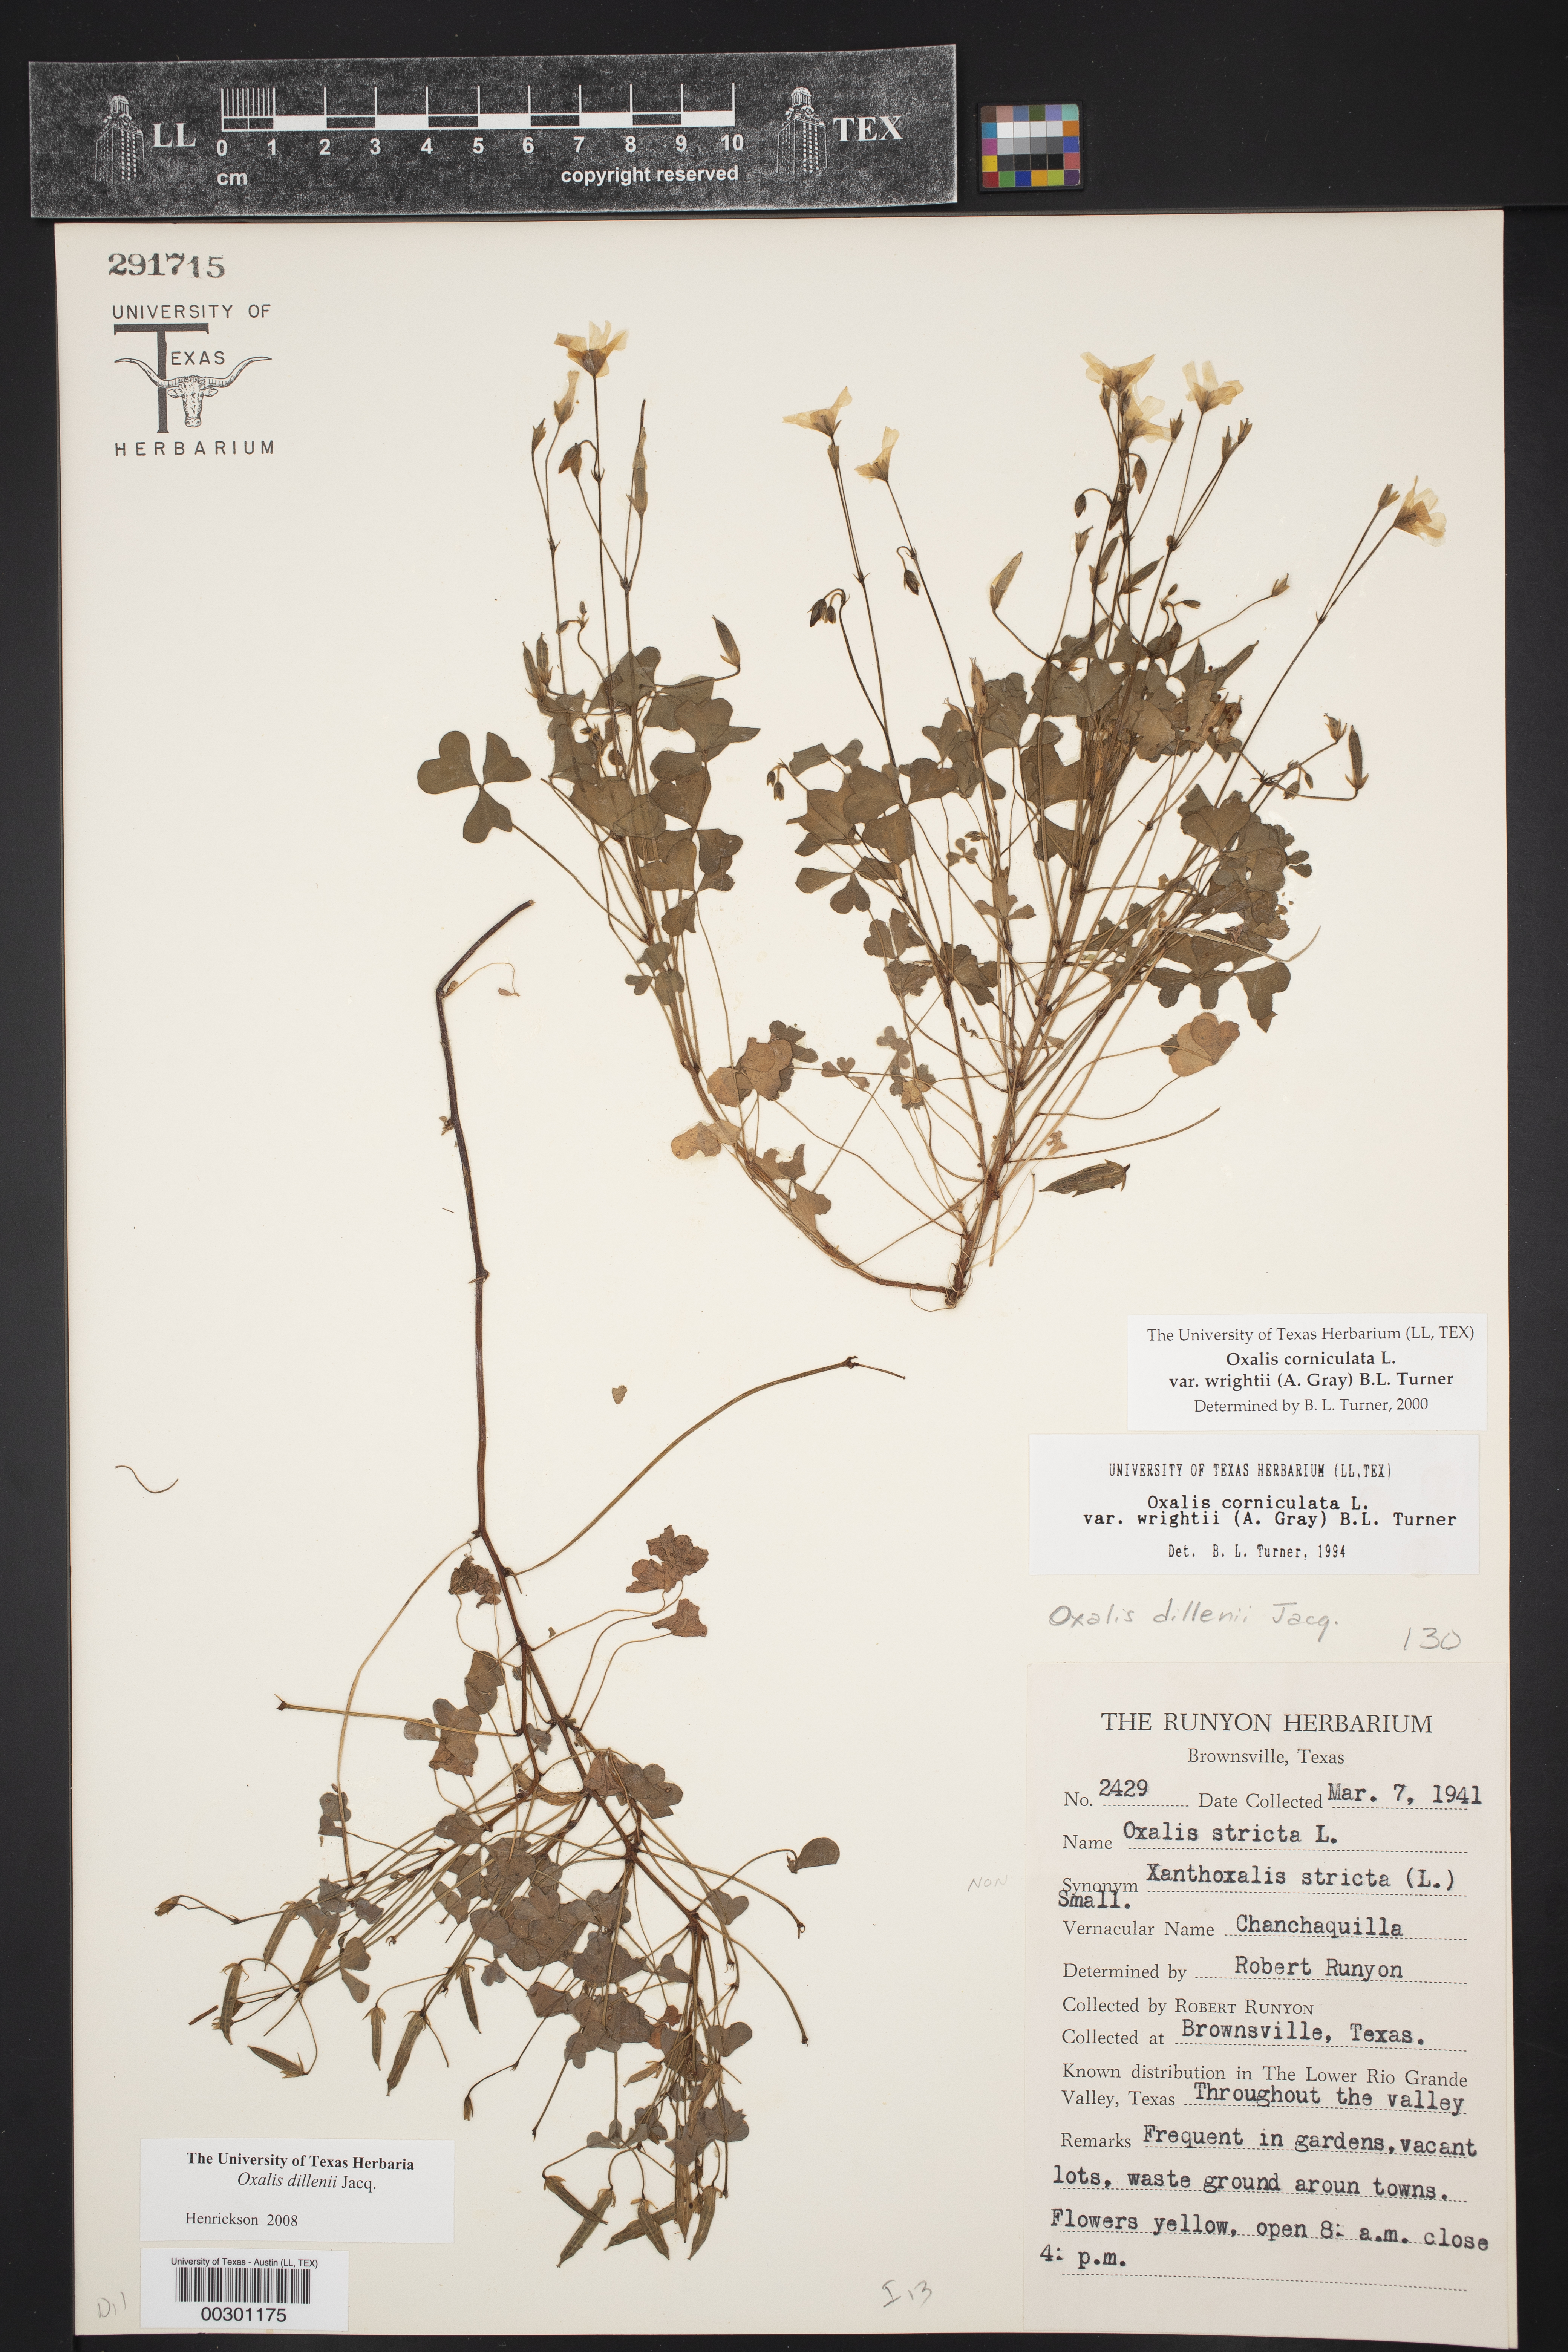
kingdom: Plantae
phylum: Tracheophyta
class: Magnoliopsida
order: Oxalidales
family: Oxalidaceae
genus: Oxalis
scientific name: Oxalis dillenii
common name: Sussex yellow-sorrel
